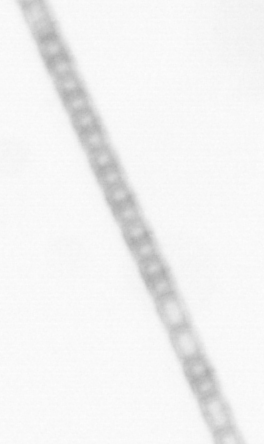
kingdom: Chromista
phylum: Ochrophyta
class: Bacillariophyceae
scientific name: Bacillariophyceae
